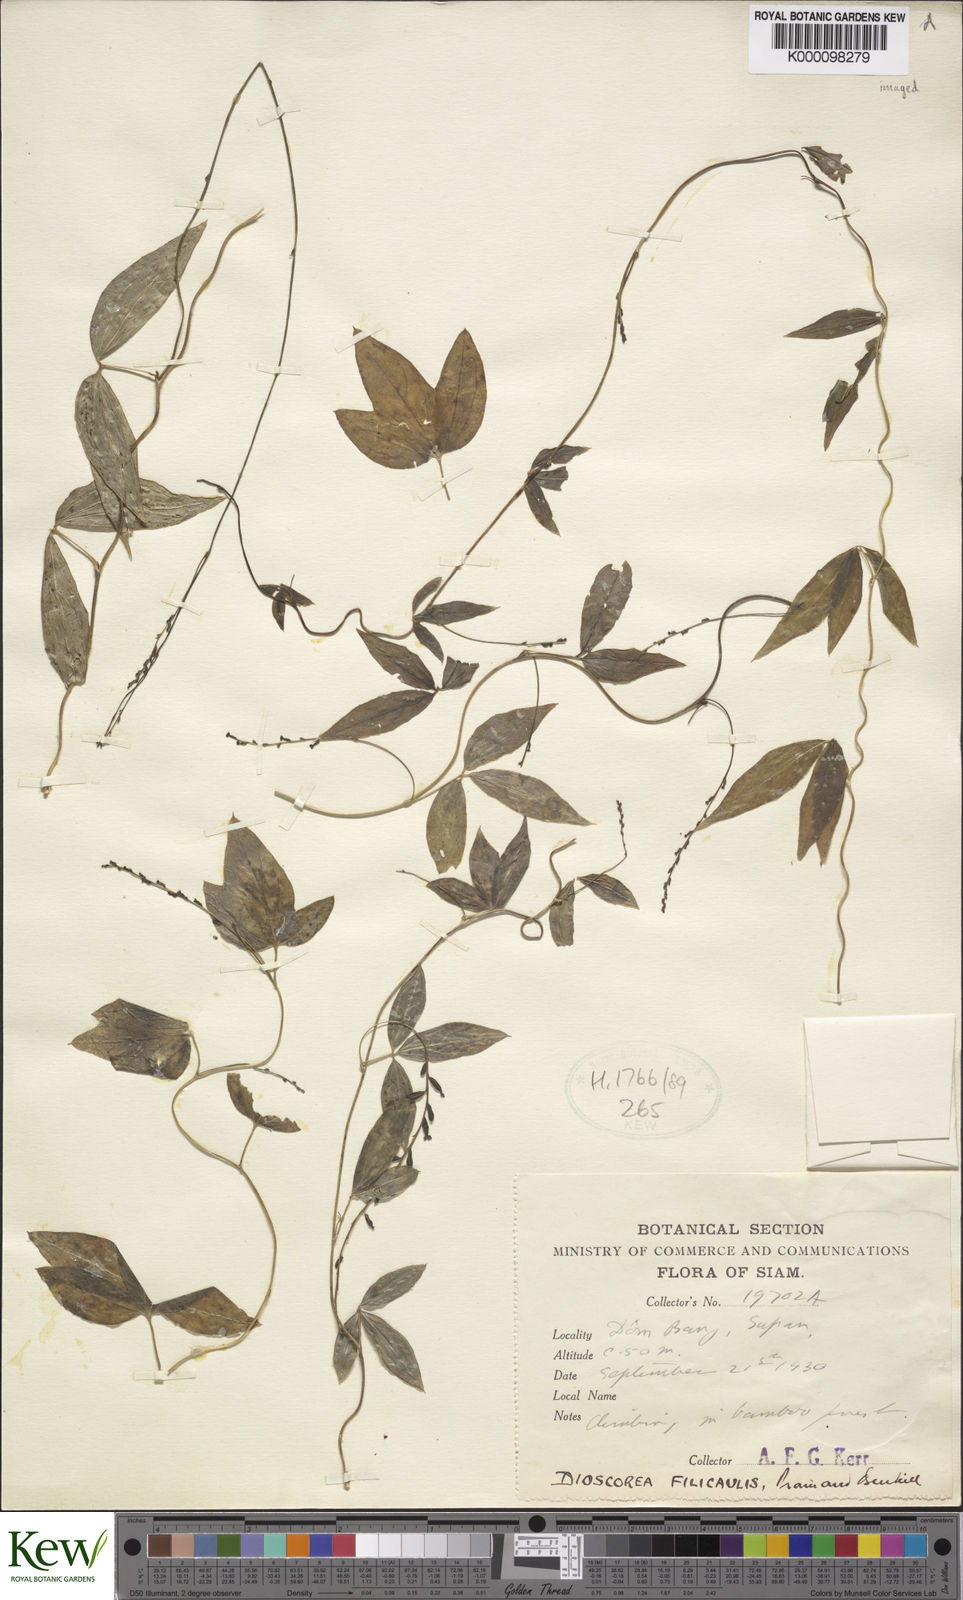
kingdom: Plantae
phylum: Tracheophyta
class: Liliopsida
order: Dioscoreales
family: Dioscoreaceae
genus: Dioscorea
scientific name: Dioscorea arachidna
